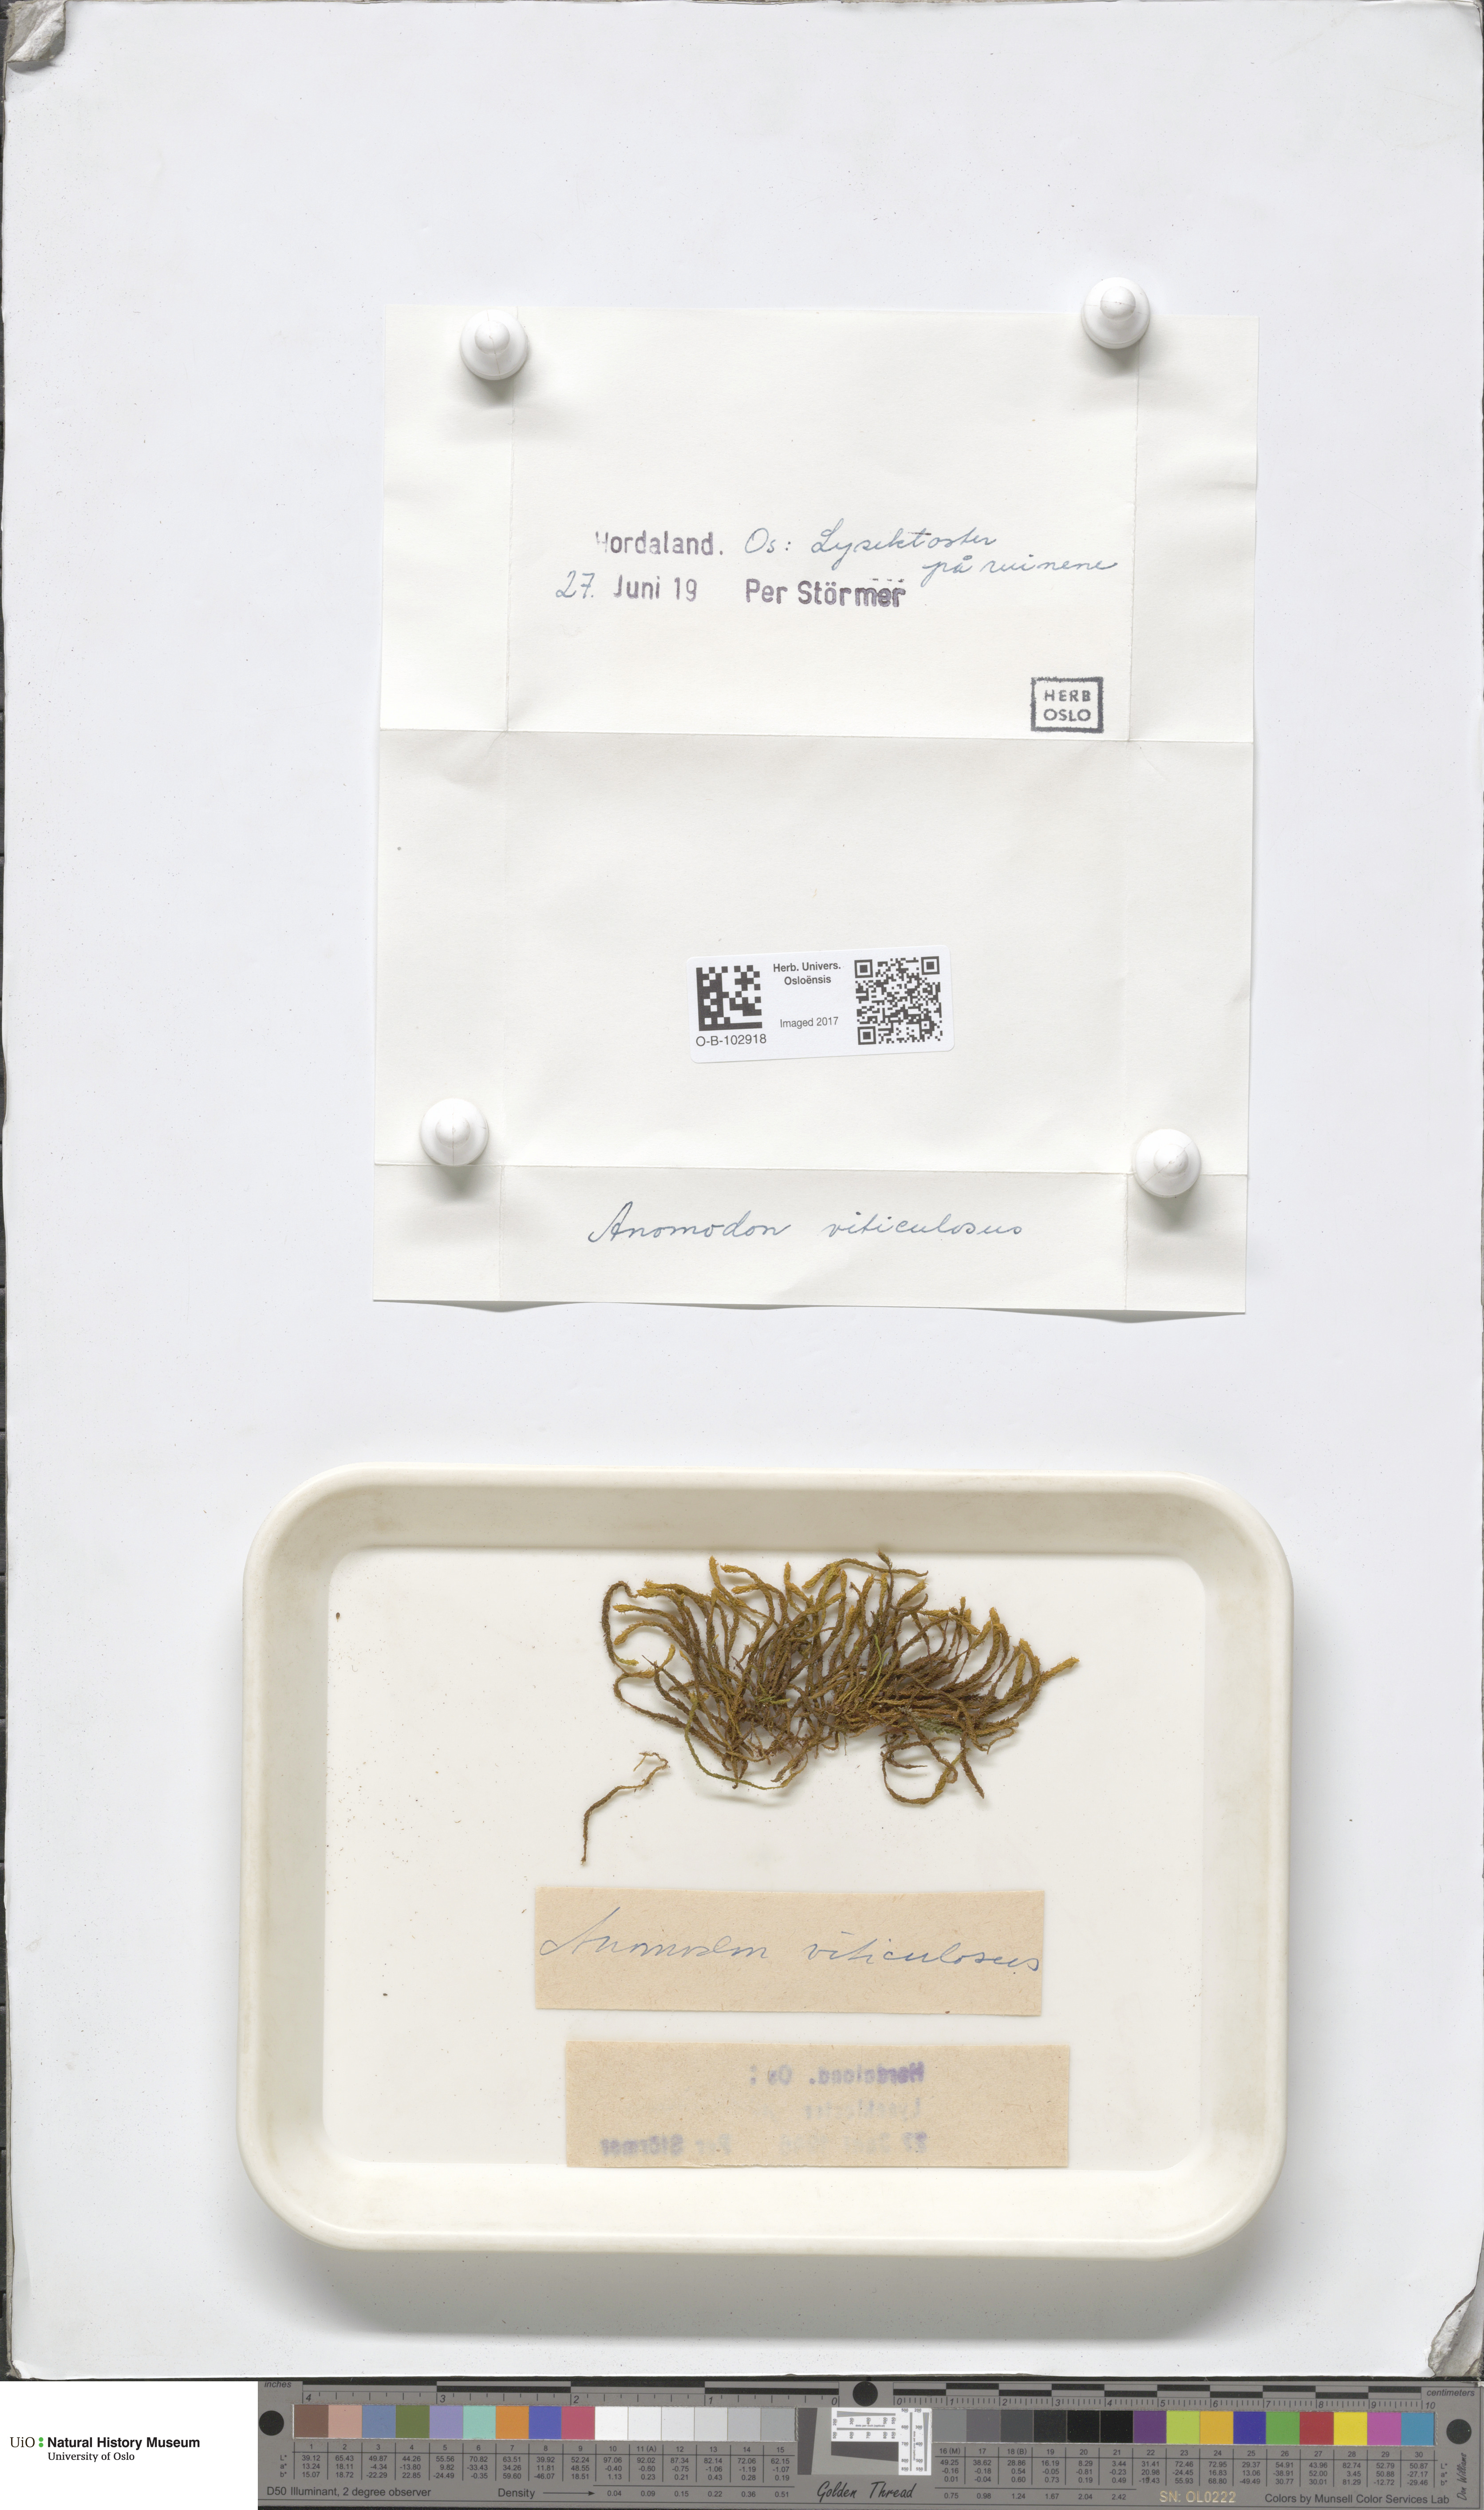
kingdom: Plantae
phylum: Bryophyta
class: Bryopsida
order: Hypnales
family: Anomodontaceae
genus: Anomodon
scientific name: Anomodon viticulosus
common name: Tall anomodon
